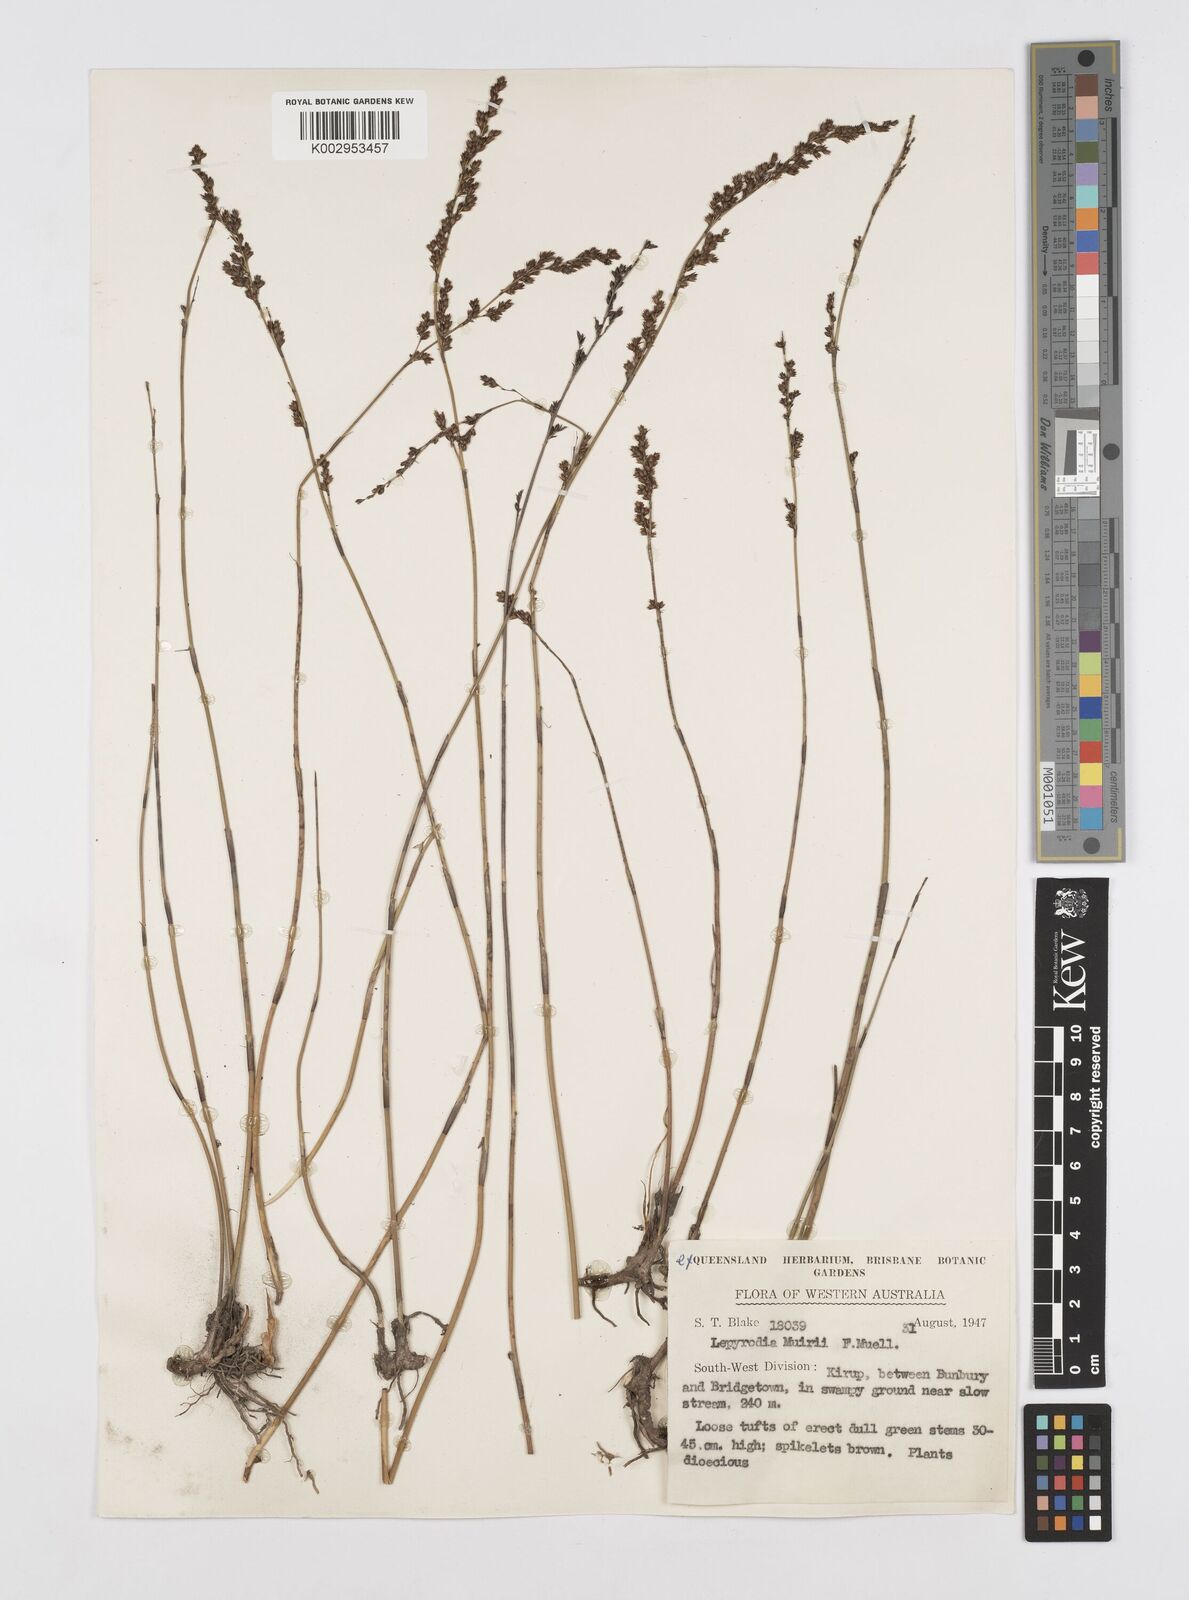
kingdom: Plantae
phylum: Tracheophyta
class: Liliopsida
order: Poales
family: Restionaceae
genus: Lepyrodia
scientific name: Lepyrodia muirii
